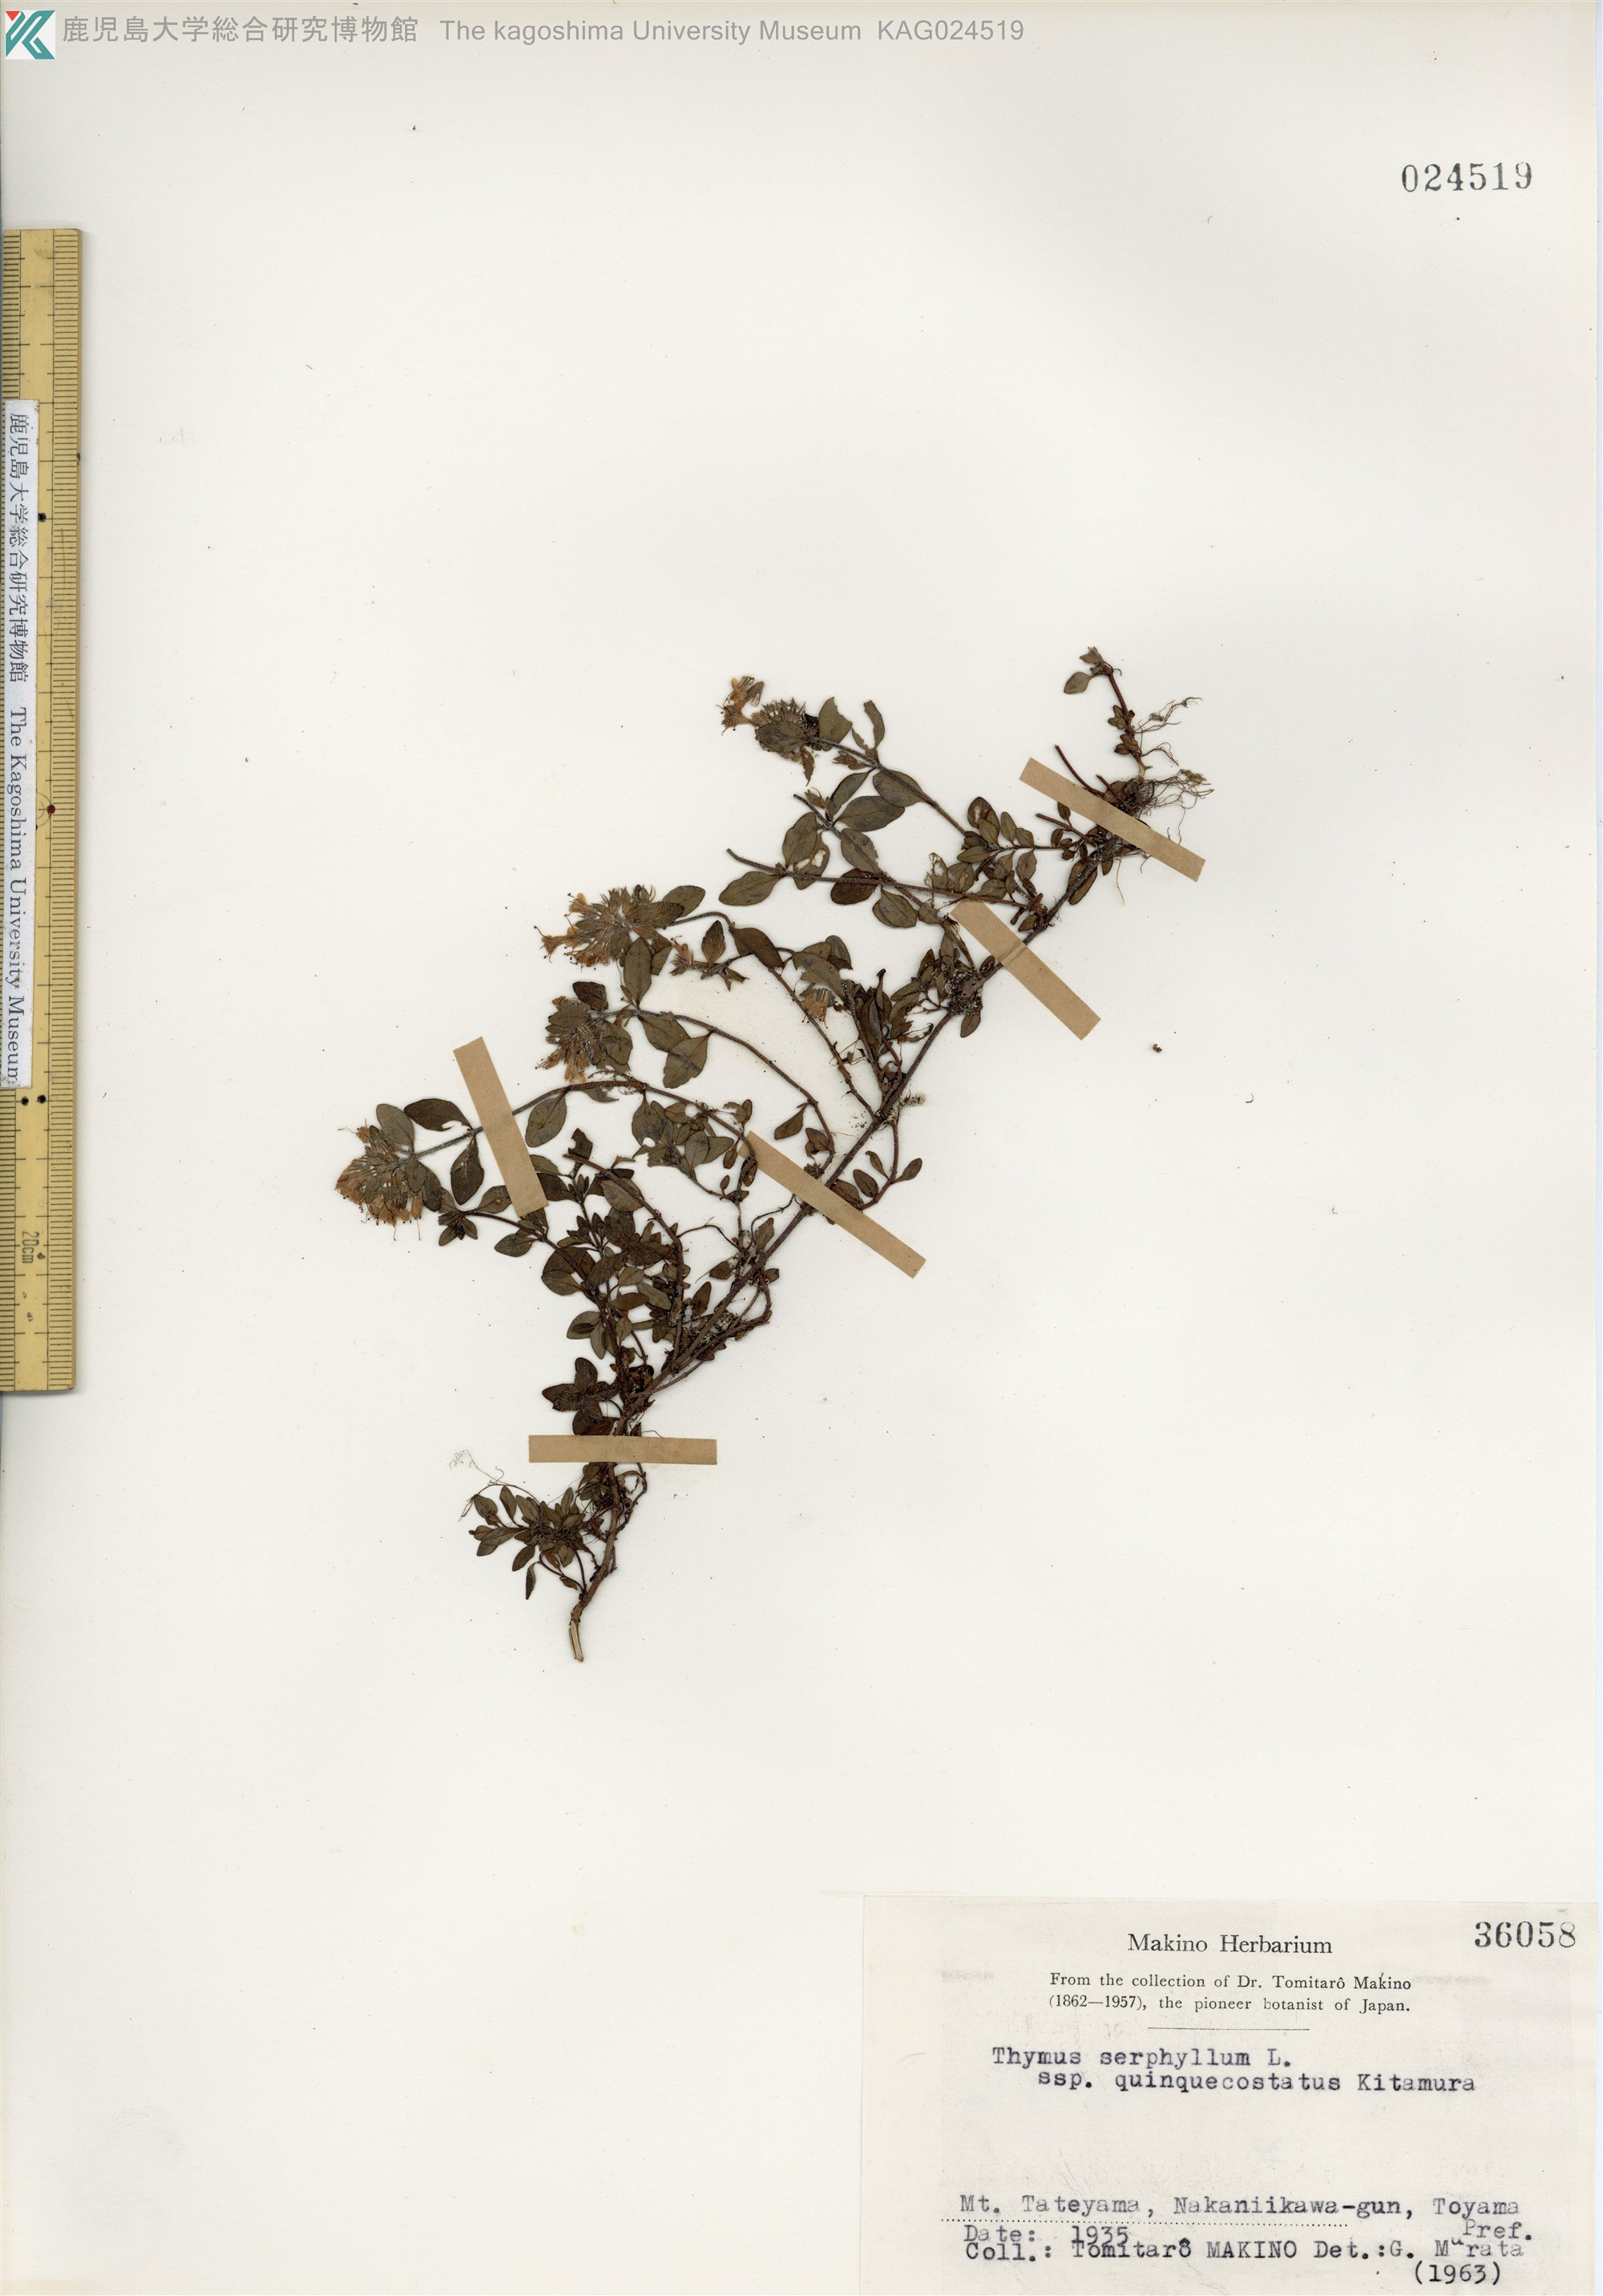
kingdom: Plantae
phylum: Tracheophyta
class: Magnoliopsida
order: Lamiales
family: Lamiaceae
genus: Thymus
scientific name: Thymus quinquecostatus
